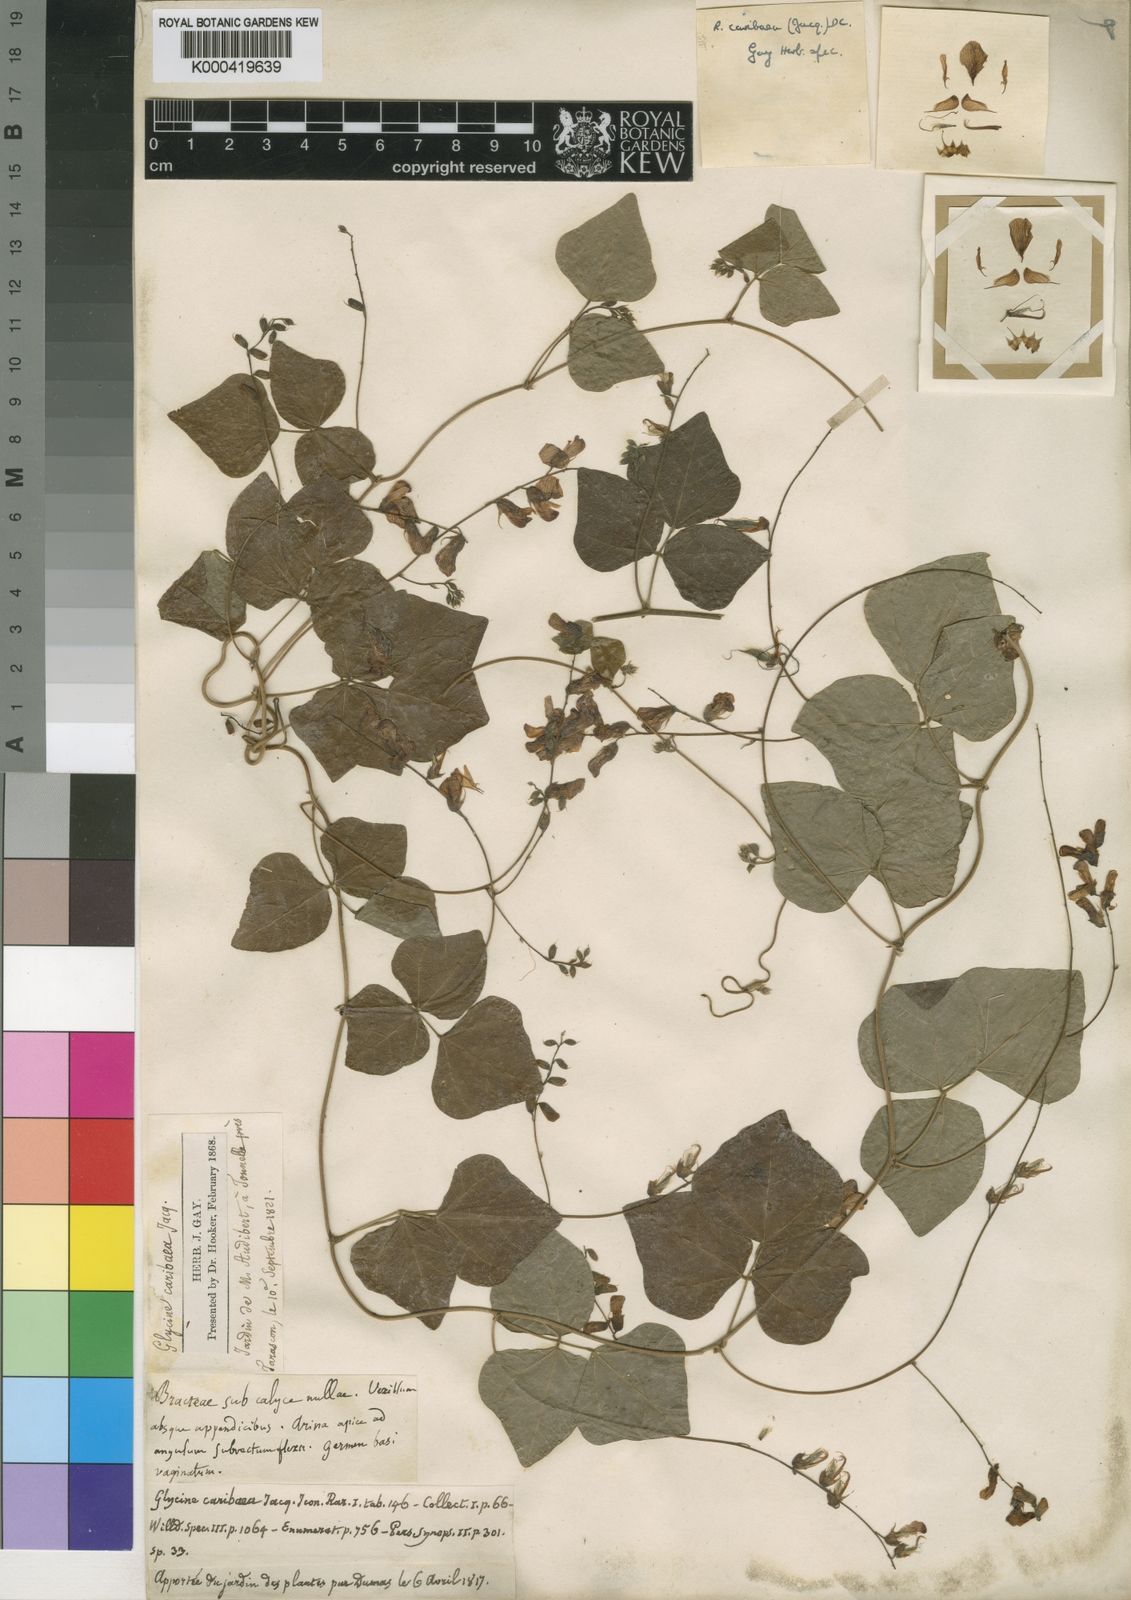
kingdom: Plantae
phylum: Tracheophyta
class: Magnoliopsida
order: Fabales
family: Fabaceae
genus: Rhynchosia
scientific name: Rhynchosia caribaea
